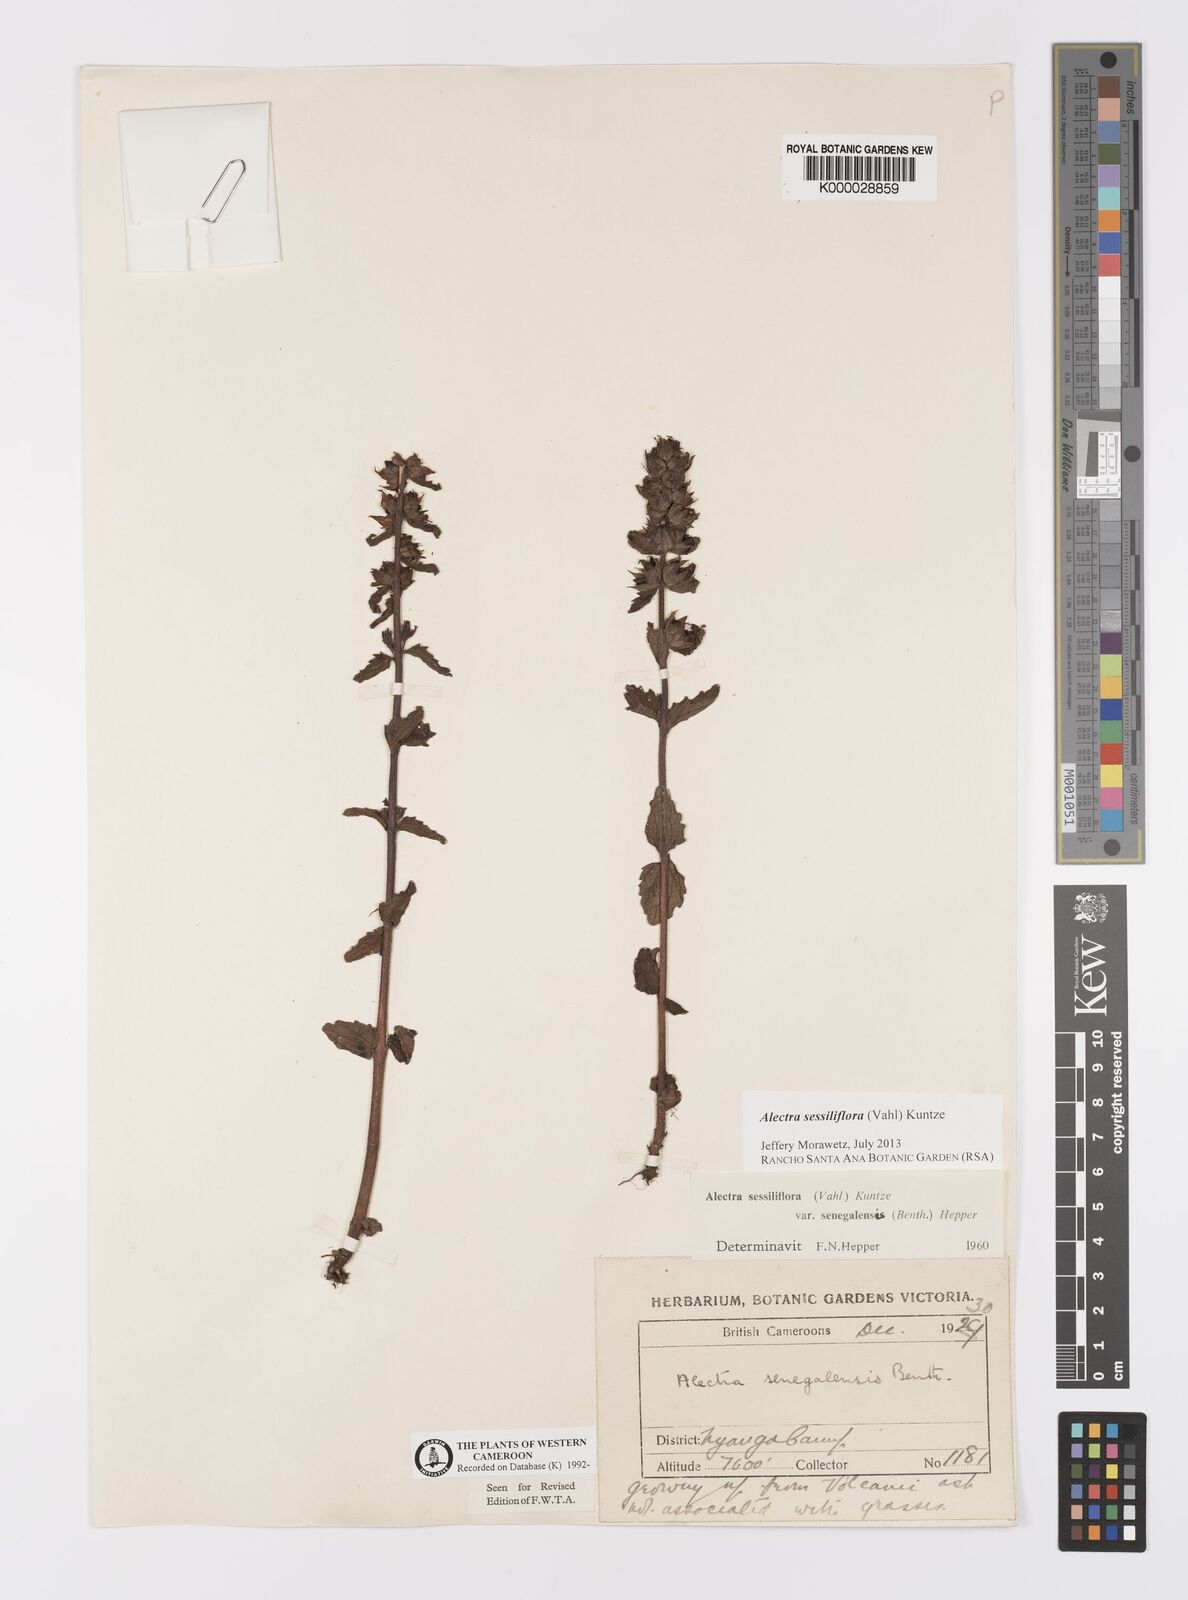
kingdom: Plantae
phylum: Tracheophyta
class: Magnoliopsida
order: Lamiales
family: Orobanchaceae
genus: Alectra
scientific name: Alectra sessiliflora
